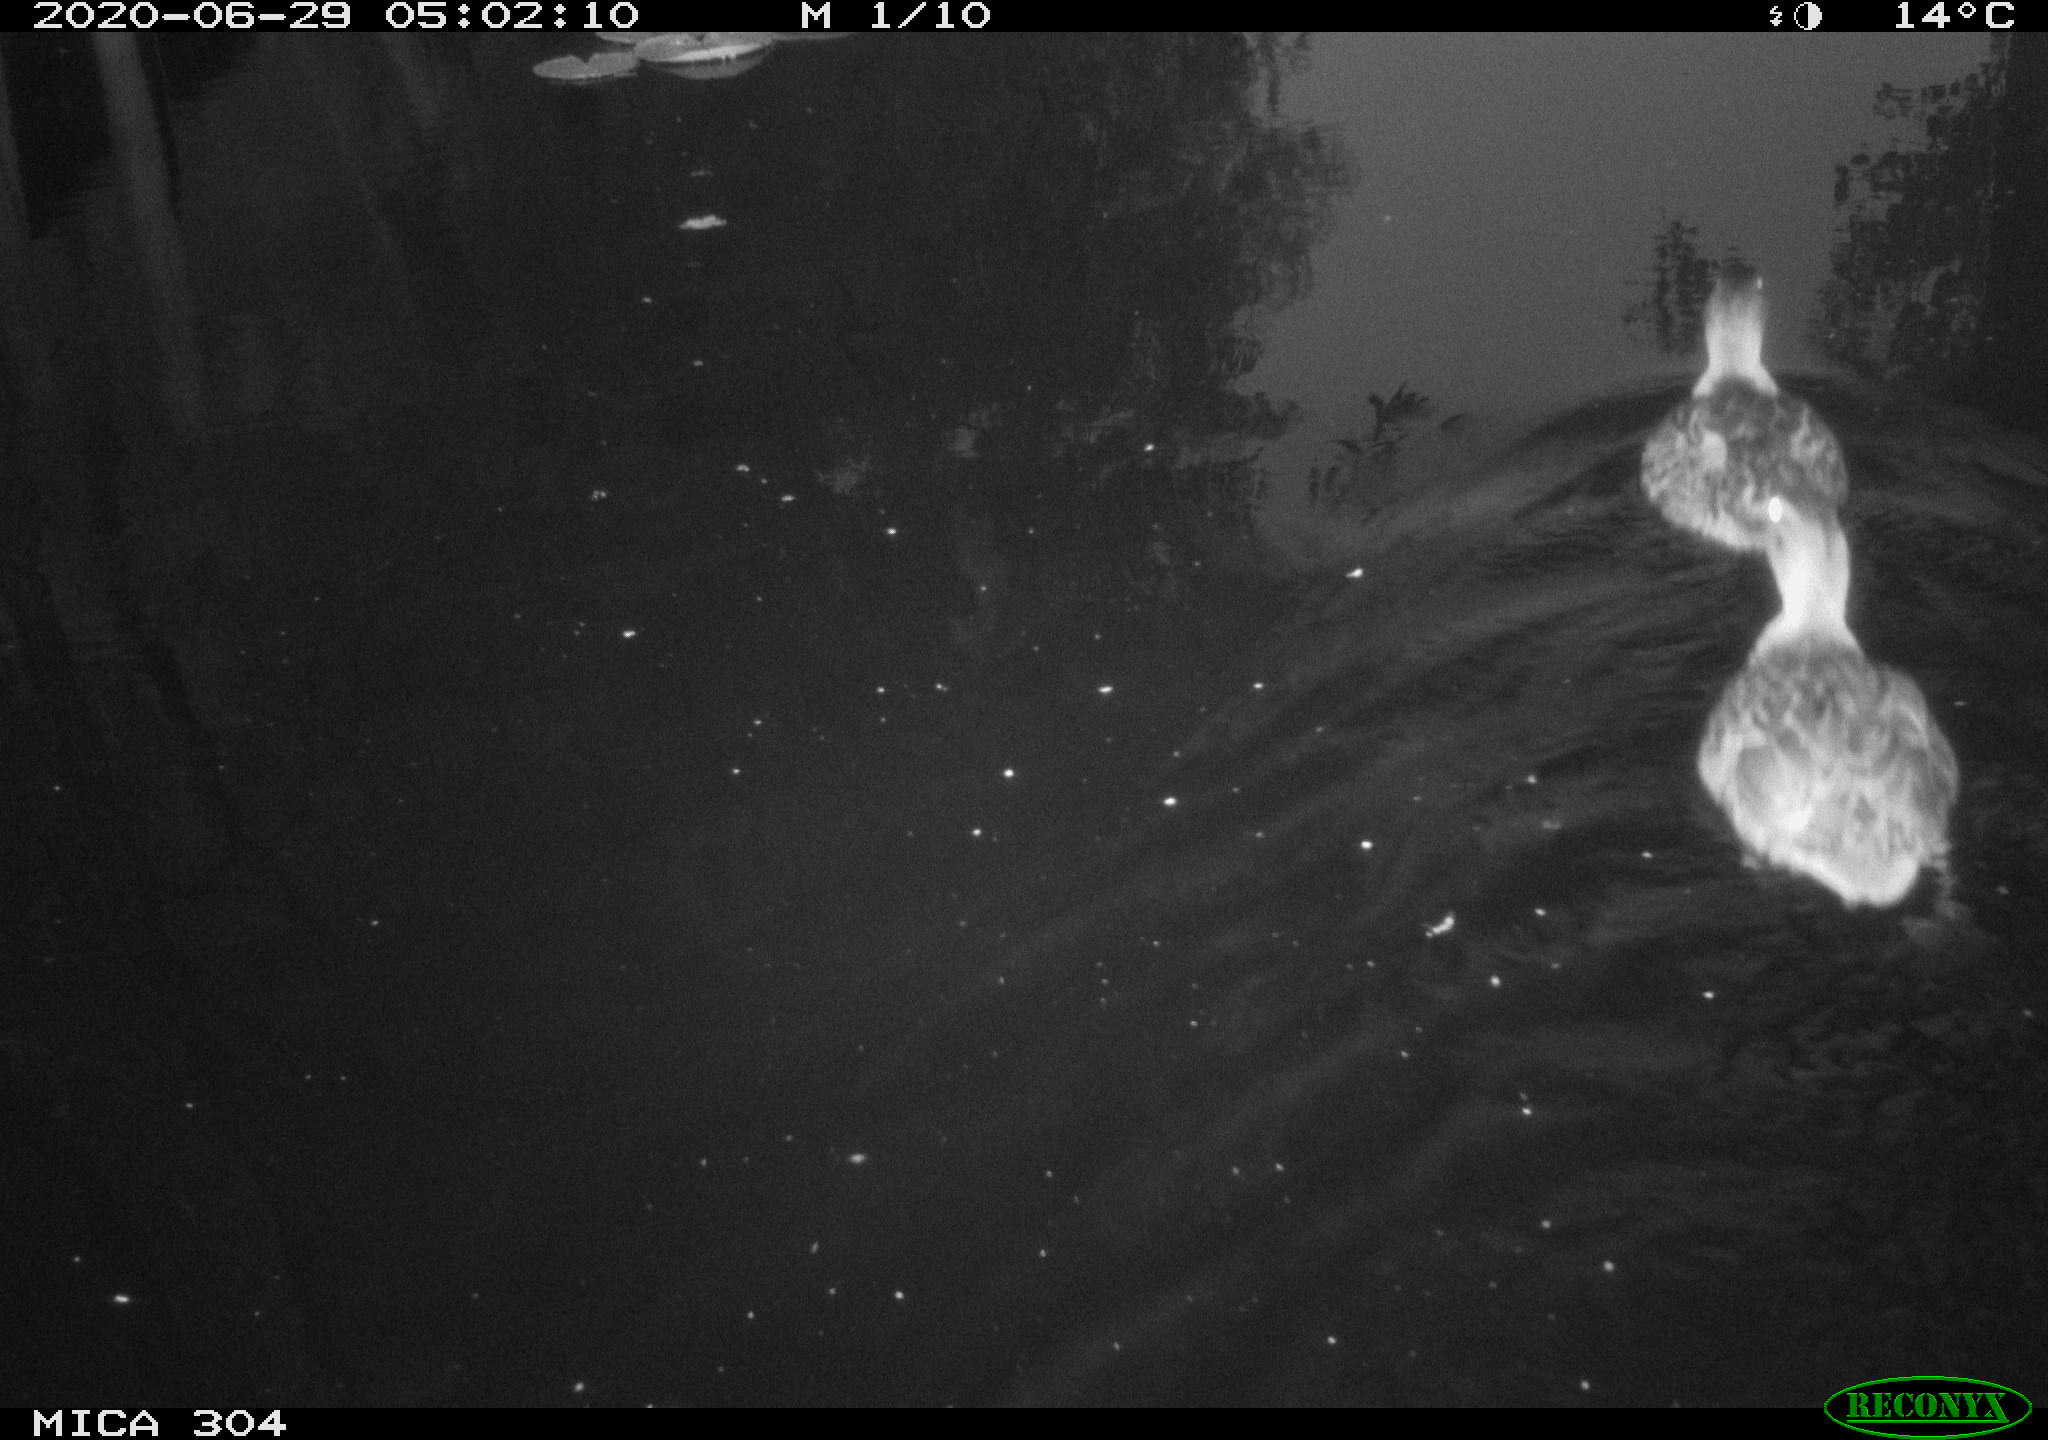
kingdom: Animalia
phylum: Chordata
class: Aves
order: Anseriformes
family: Anatidae
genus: Anas
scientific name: Anas platyrhynchos
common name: Mallard
